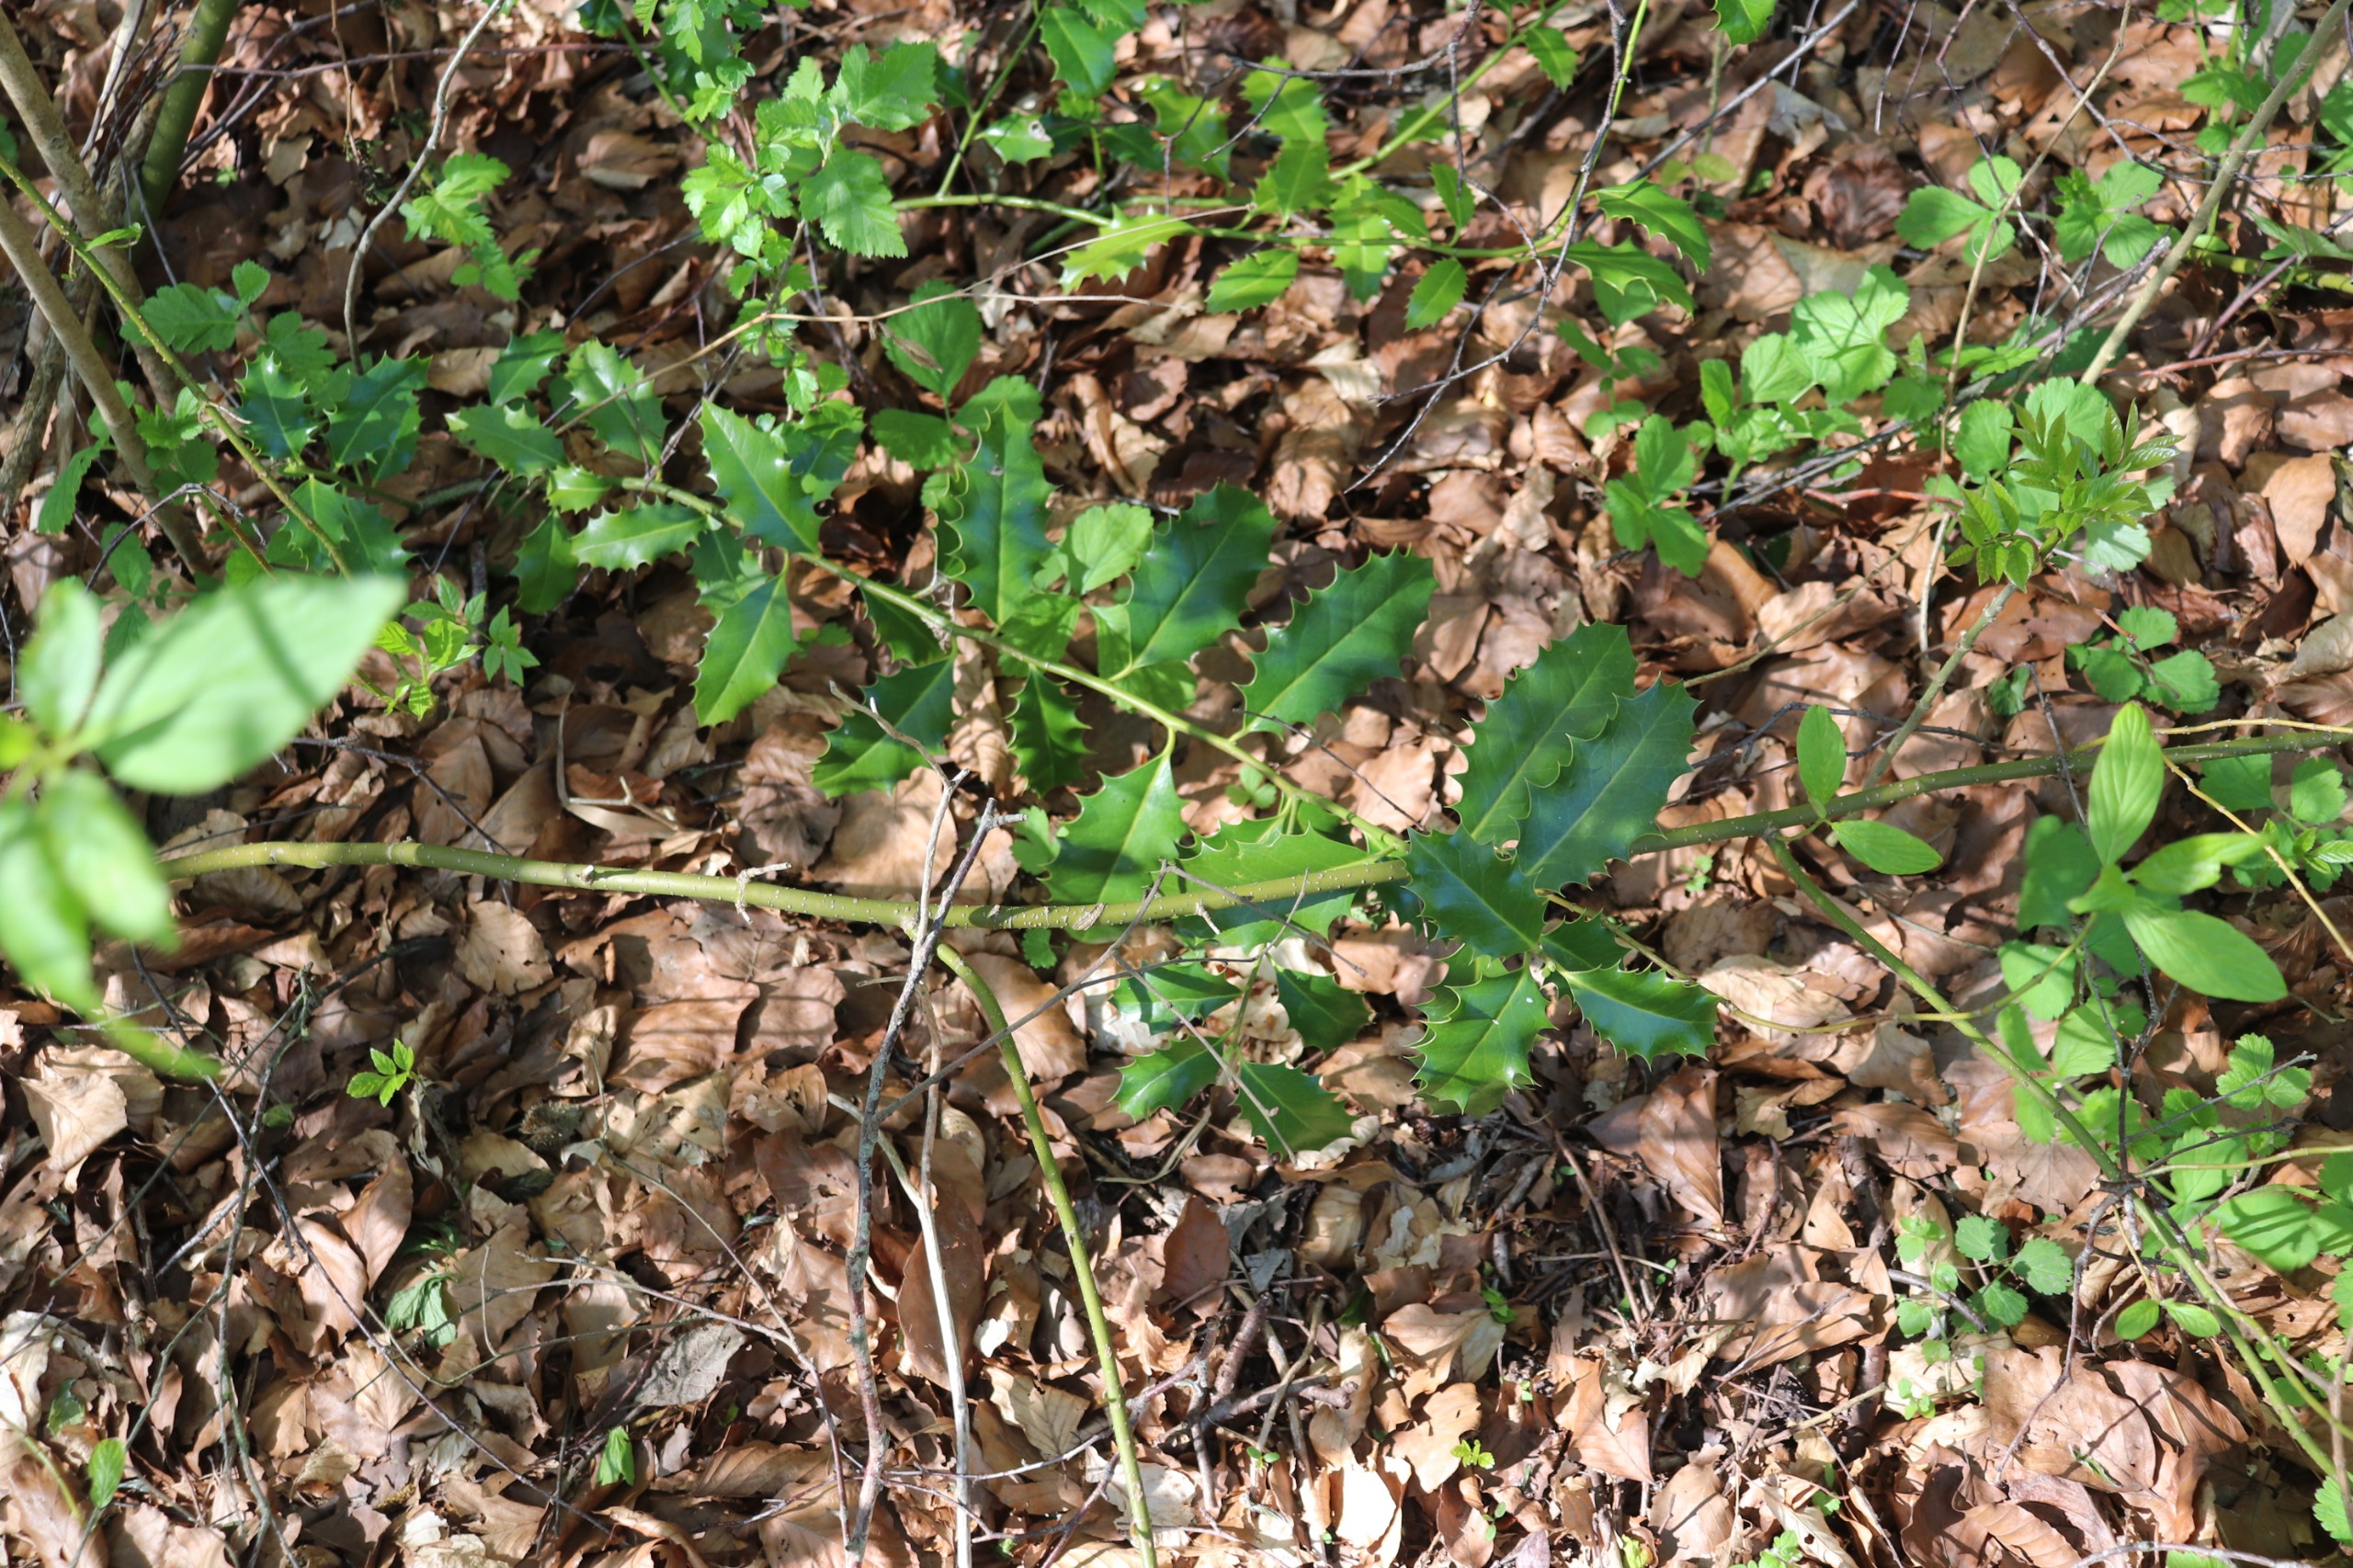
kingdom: Plantae
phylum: Tracheophyta
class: Magnoliopsida
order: Aquifoliales
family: Aquifoliaceae
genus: Ilex
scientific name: Ilex aquifolium
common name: Kristtorn
